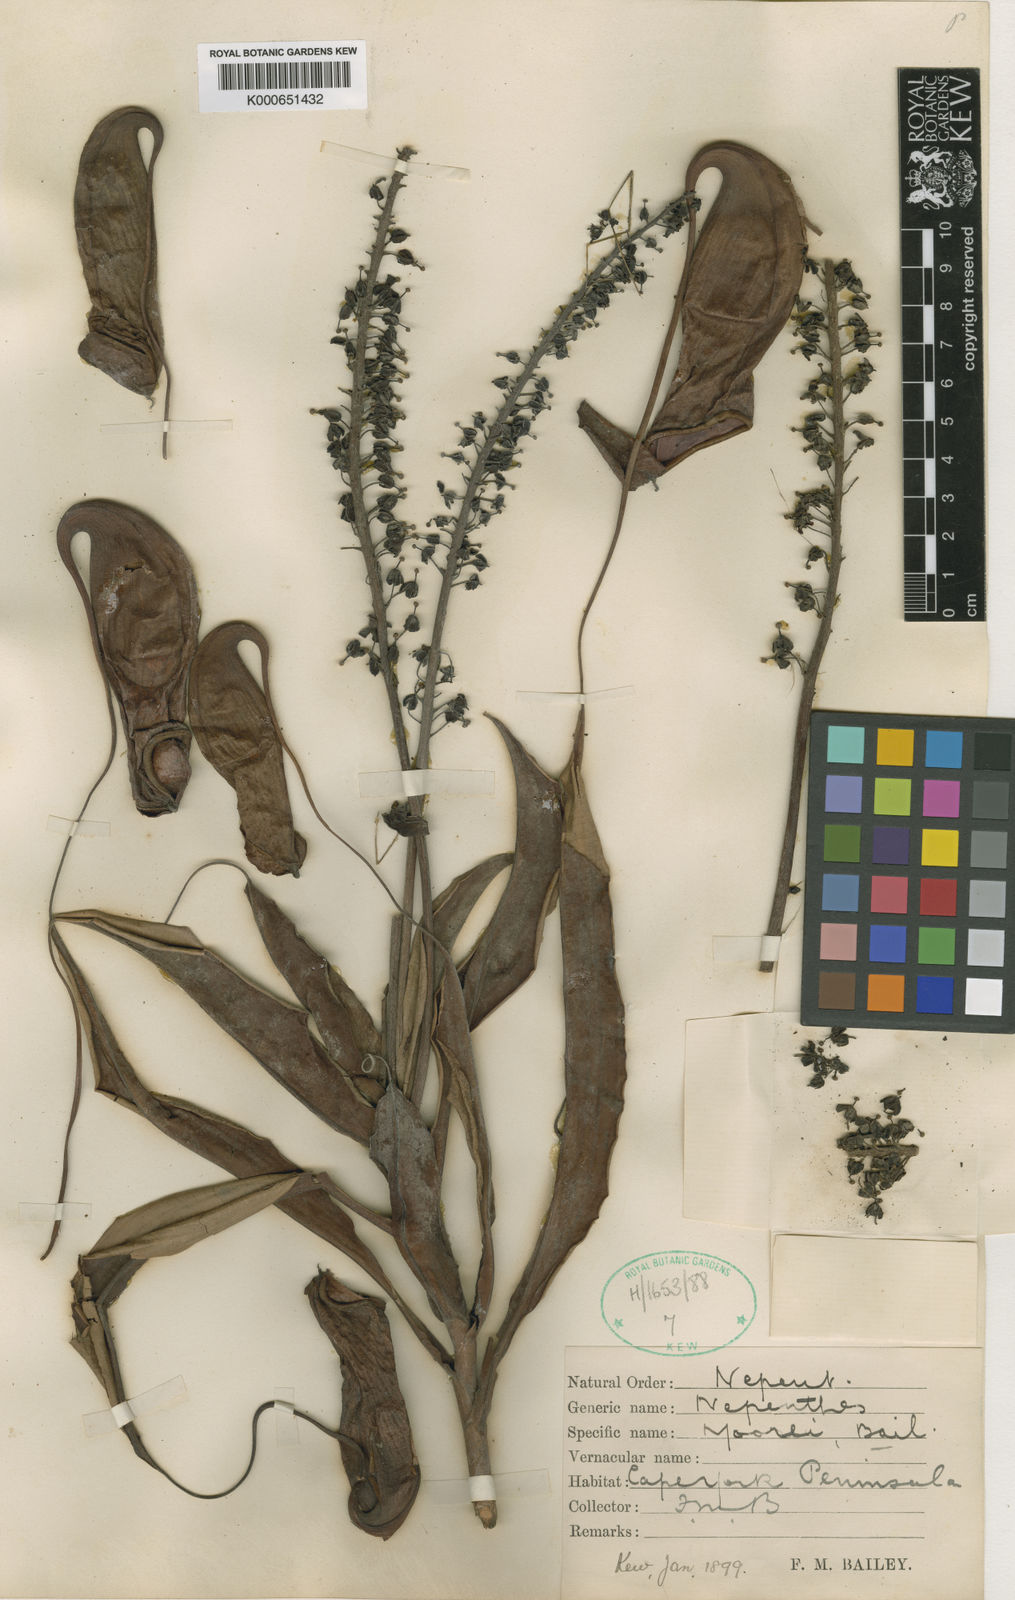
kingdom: Plantae
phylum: Tracheophyta
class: Magnoliopsida
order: Caryophyllales
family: Nepenthaceae
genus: Nepenthes
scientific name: Nepenthes mirabilis
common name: Tropical pitcherplant
